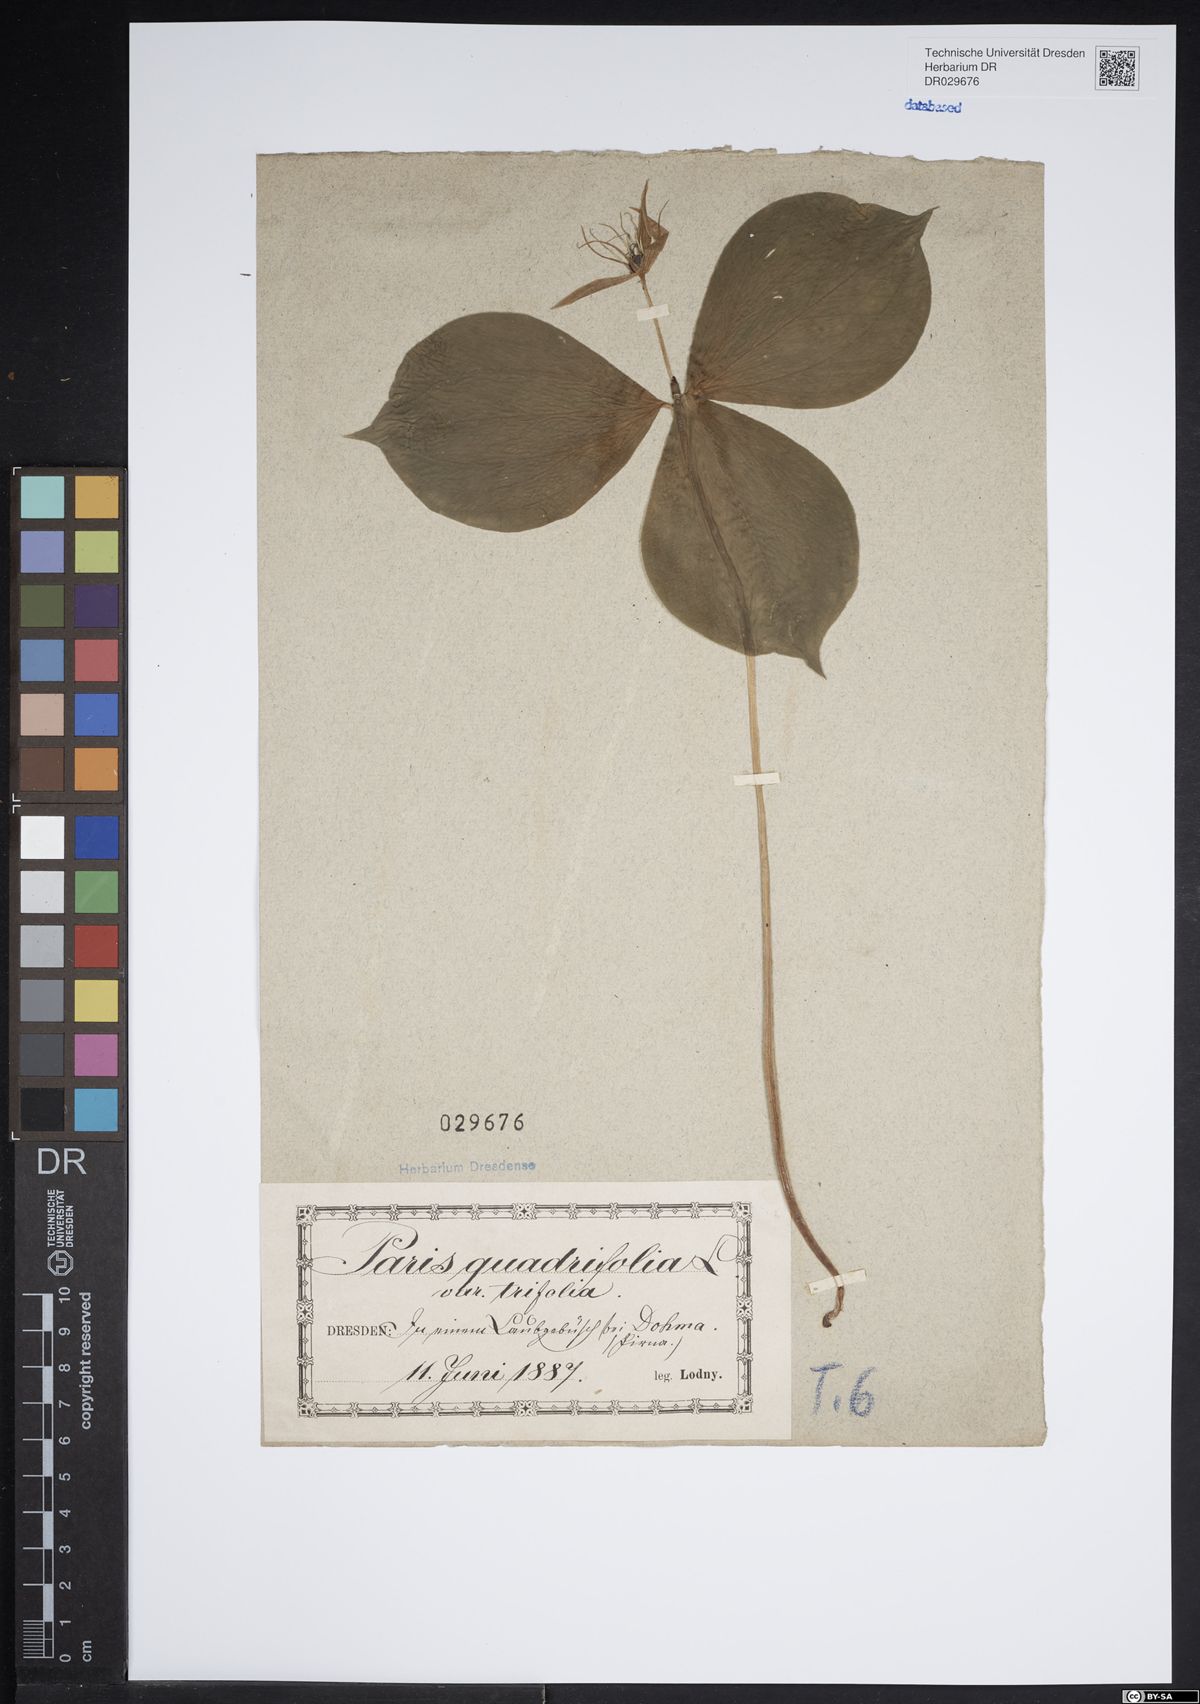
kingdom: Plantae
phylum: Tracheophyta
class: Liliopsida
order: Liliales
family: Melanthiaceae
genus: Paris
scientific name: Paris quadrifolia
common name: Herb-paris
